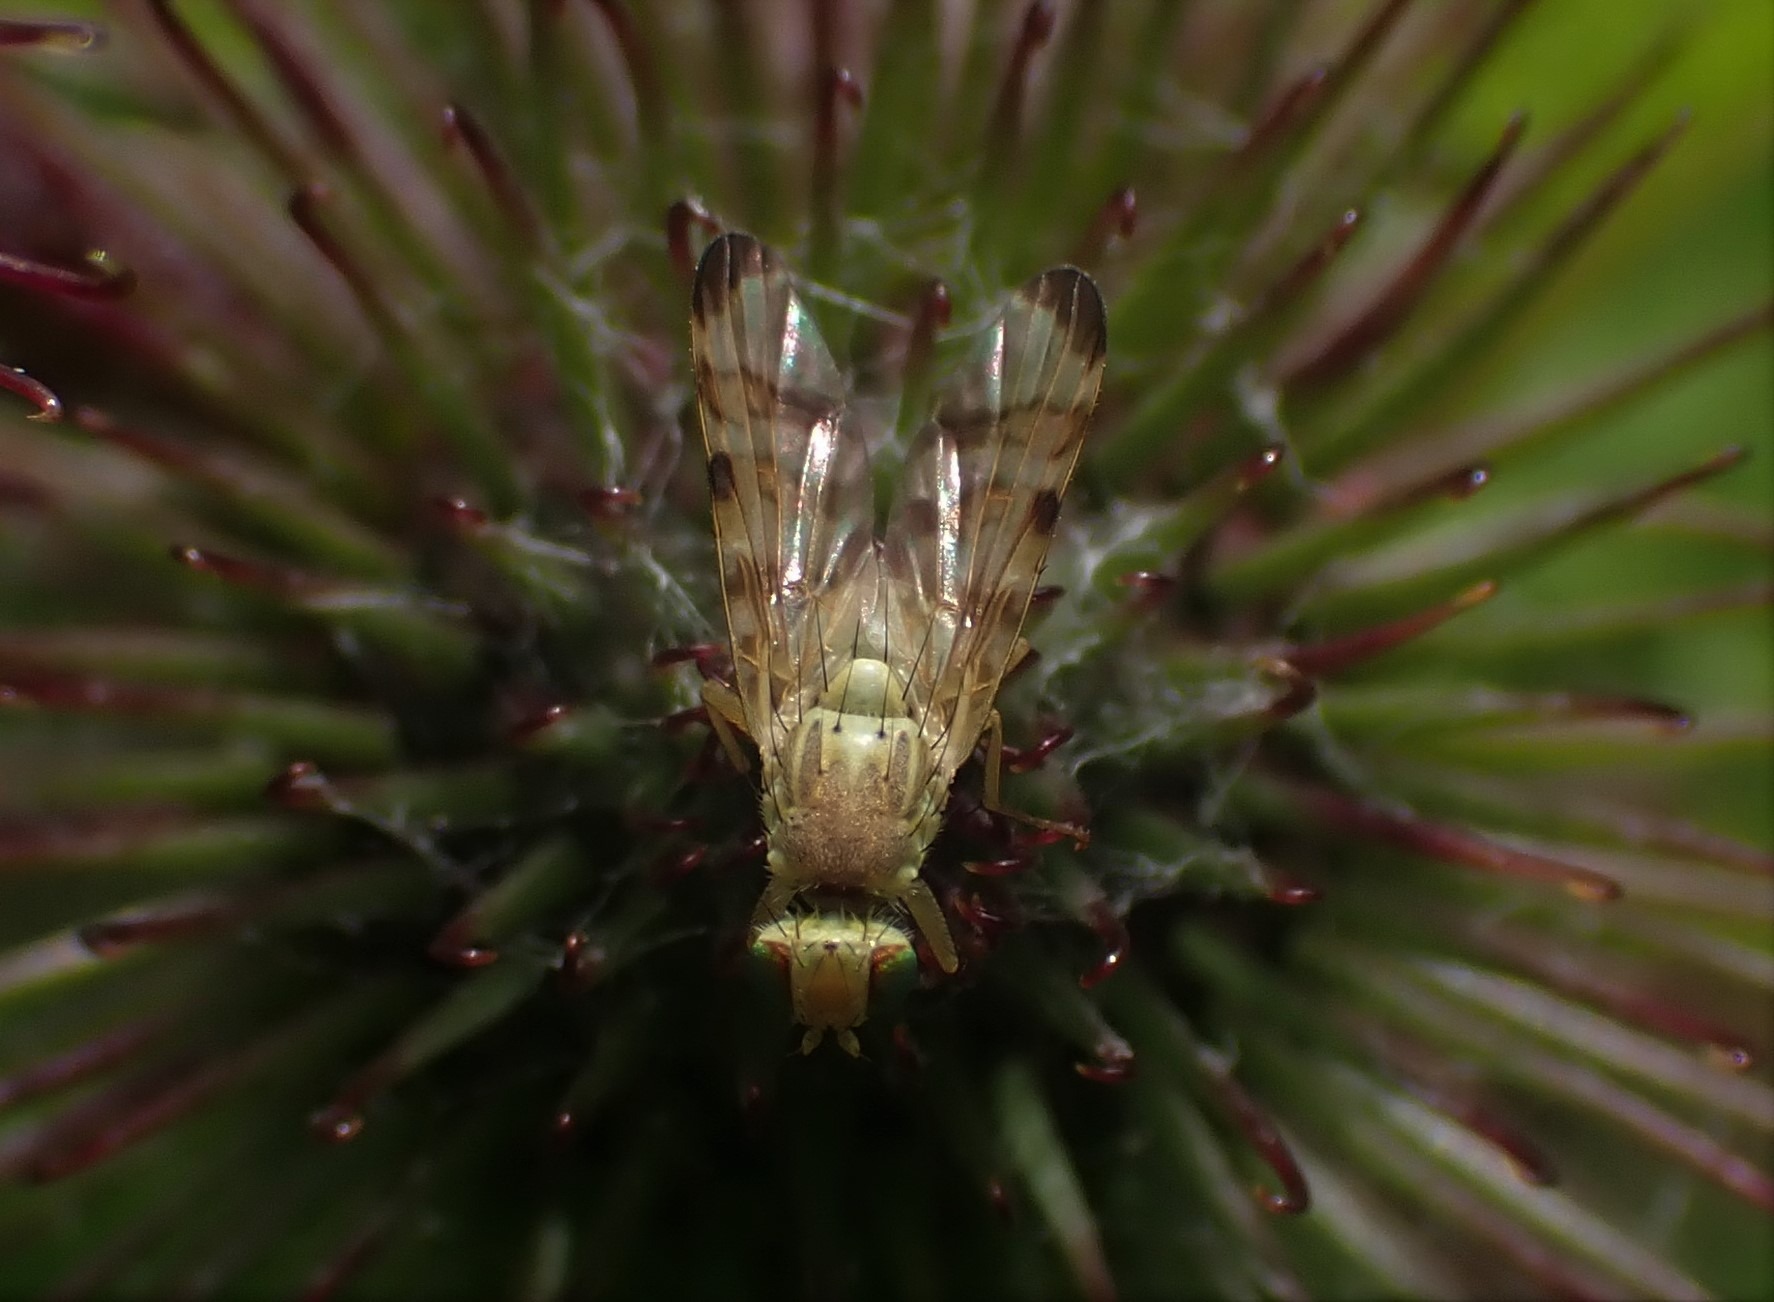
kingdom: Animalia
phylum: Arthropoda
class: Insecta
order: Diptera
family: Tephritidae
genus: Terellia
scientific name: Terellia tussilaginis
